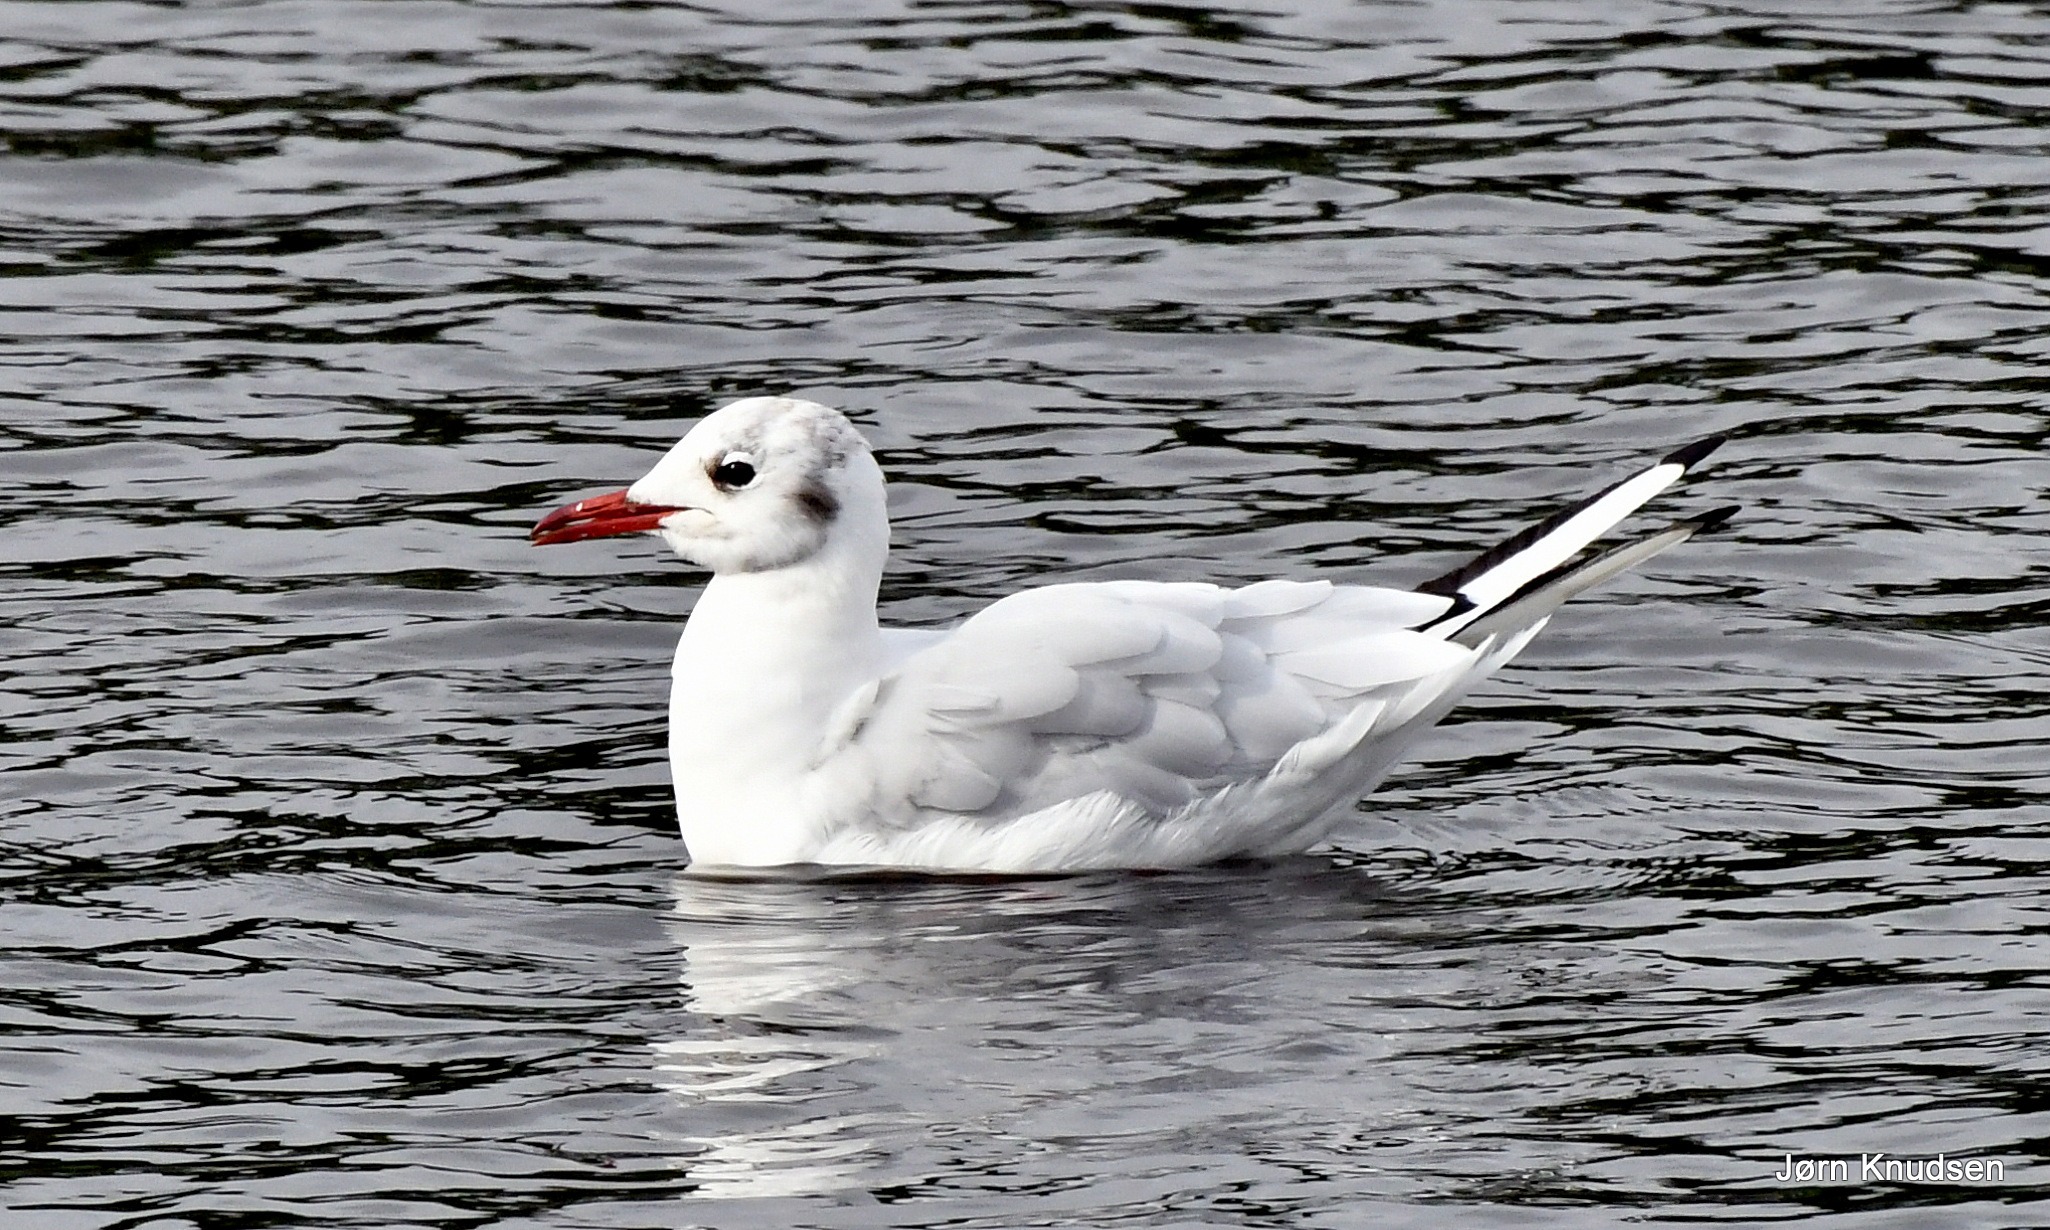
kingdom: Animalia
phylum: Chordata
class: Aves
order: Charadriiformes
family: Laridae
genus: Chroicocephalus
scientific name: Chroicocephalus ridibundus
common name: Hættemåge
